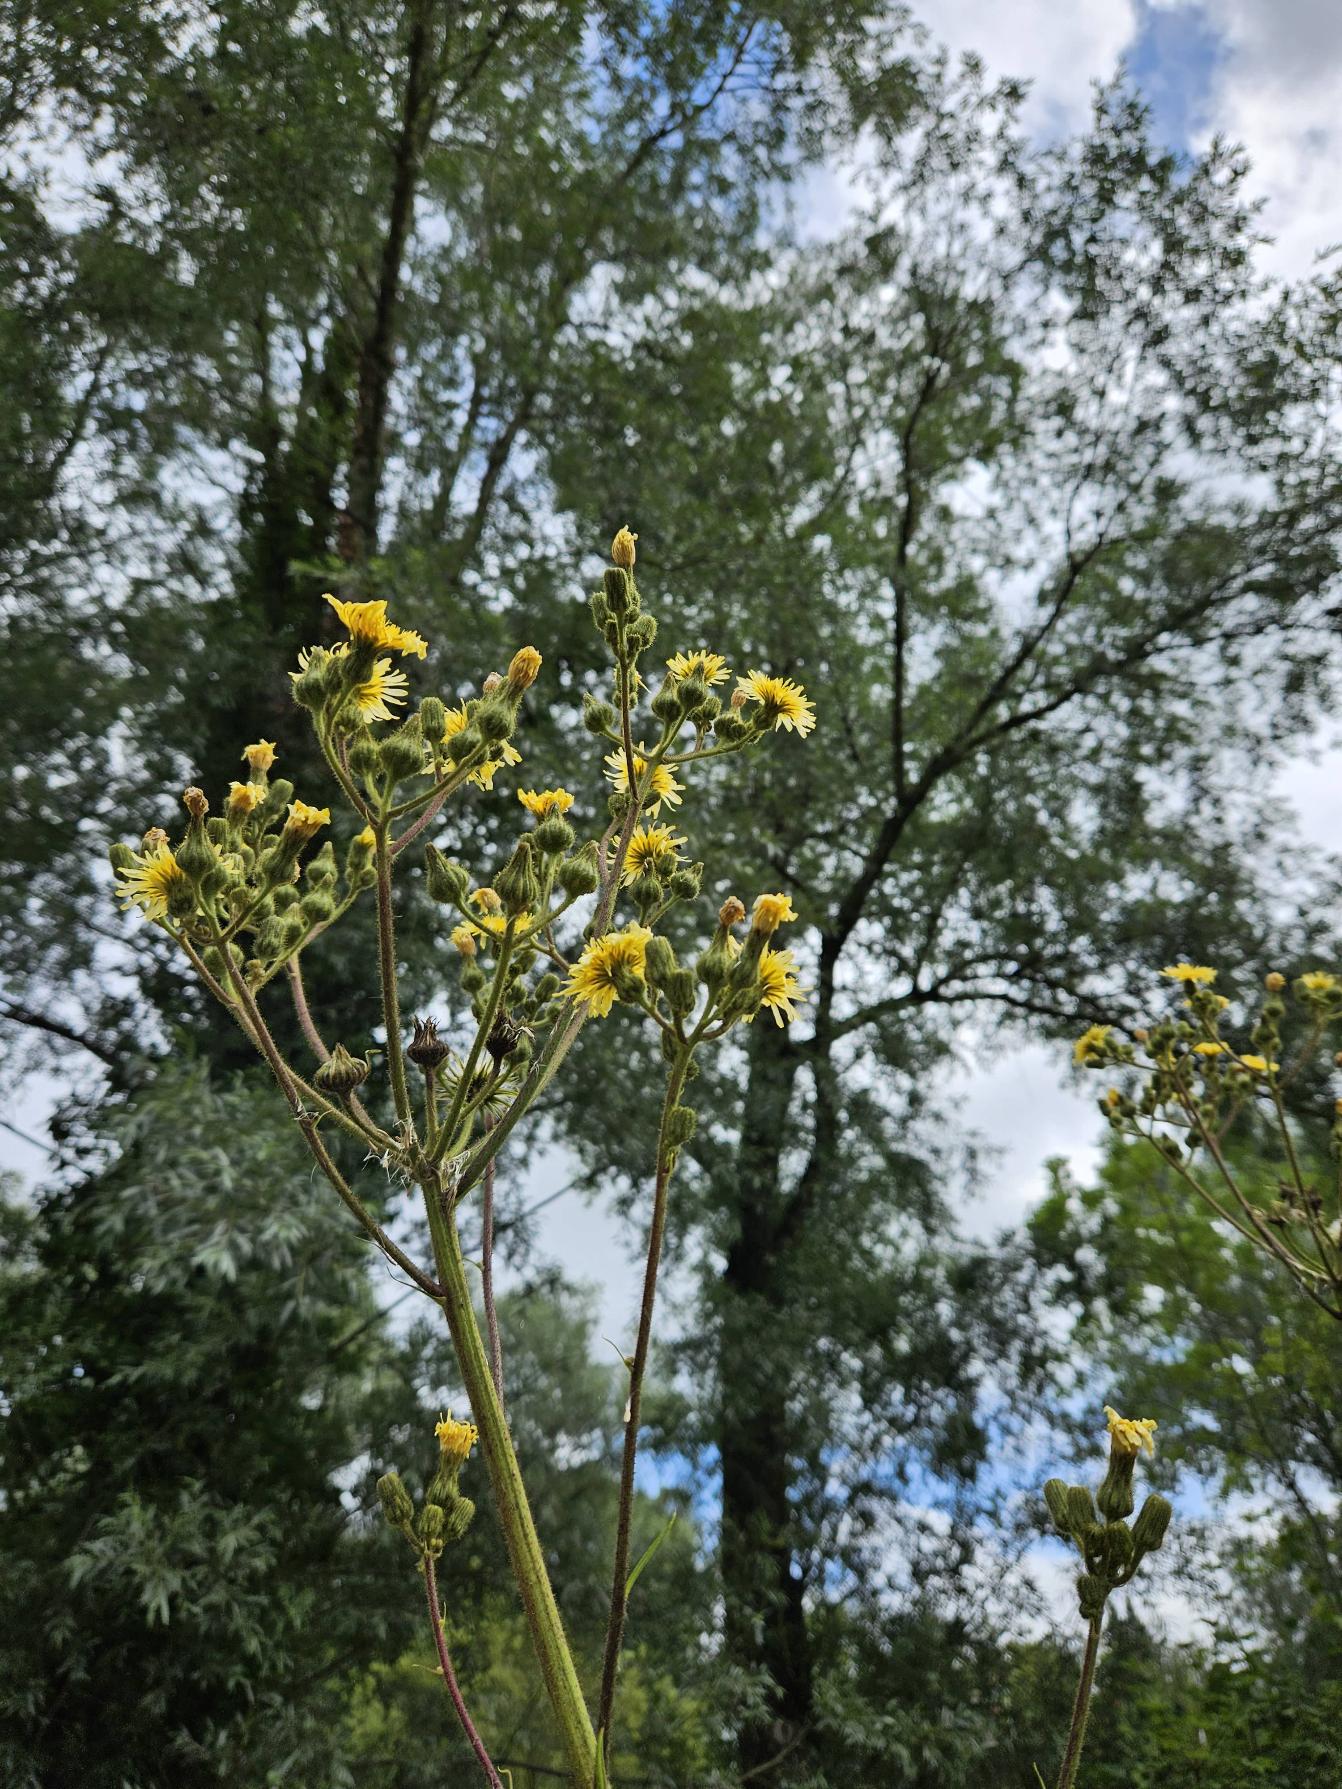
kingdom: Plantae
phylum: Tracheophyta
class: Magnoliopsida
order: Asterales
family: Asteraceae
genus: Sonchus
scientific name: Sonchus palustris
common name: Kær-svinemælk
